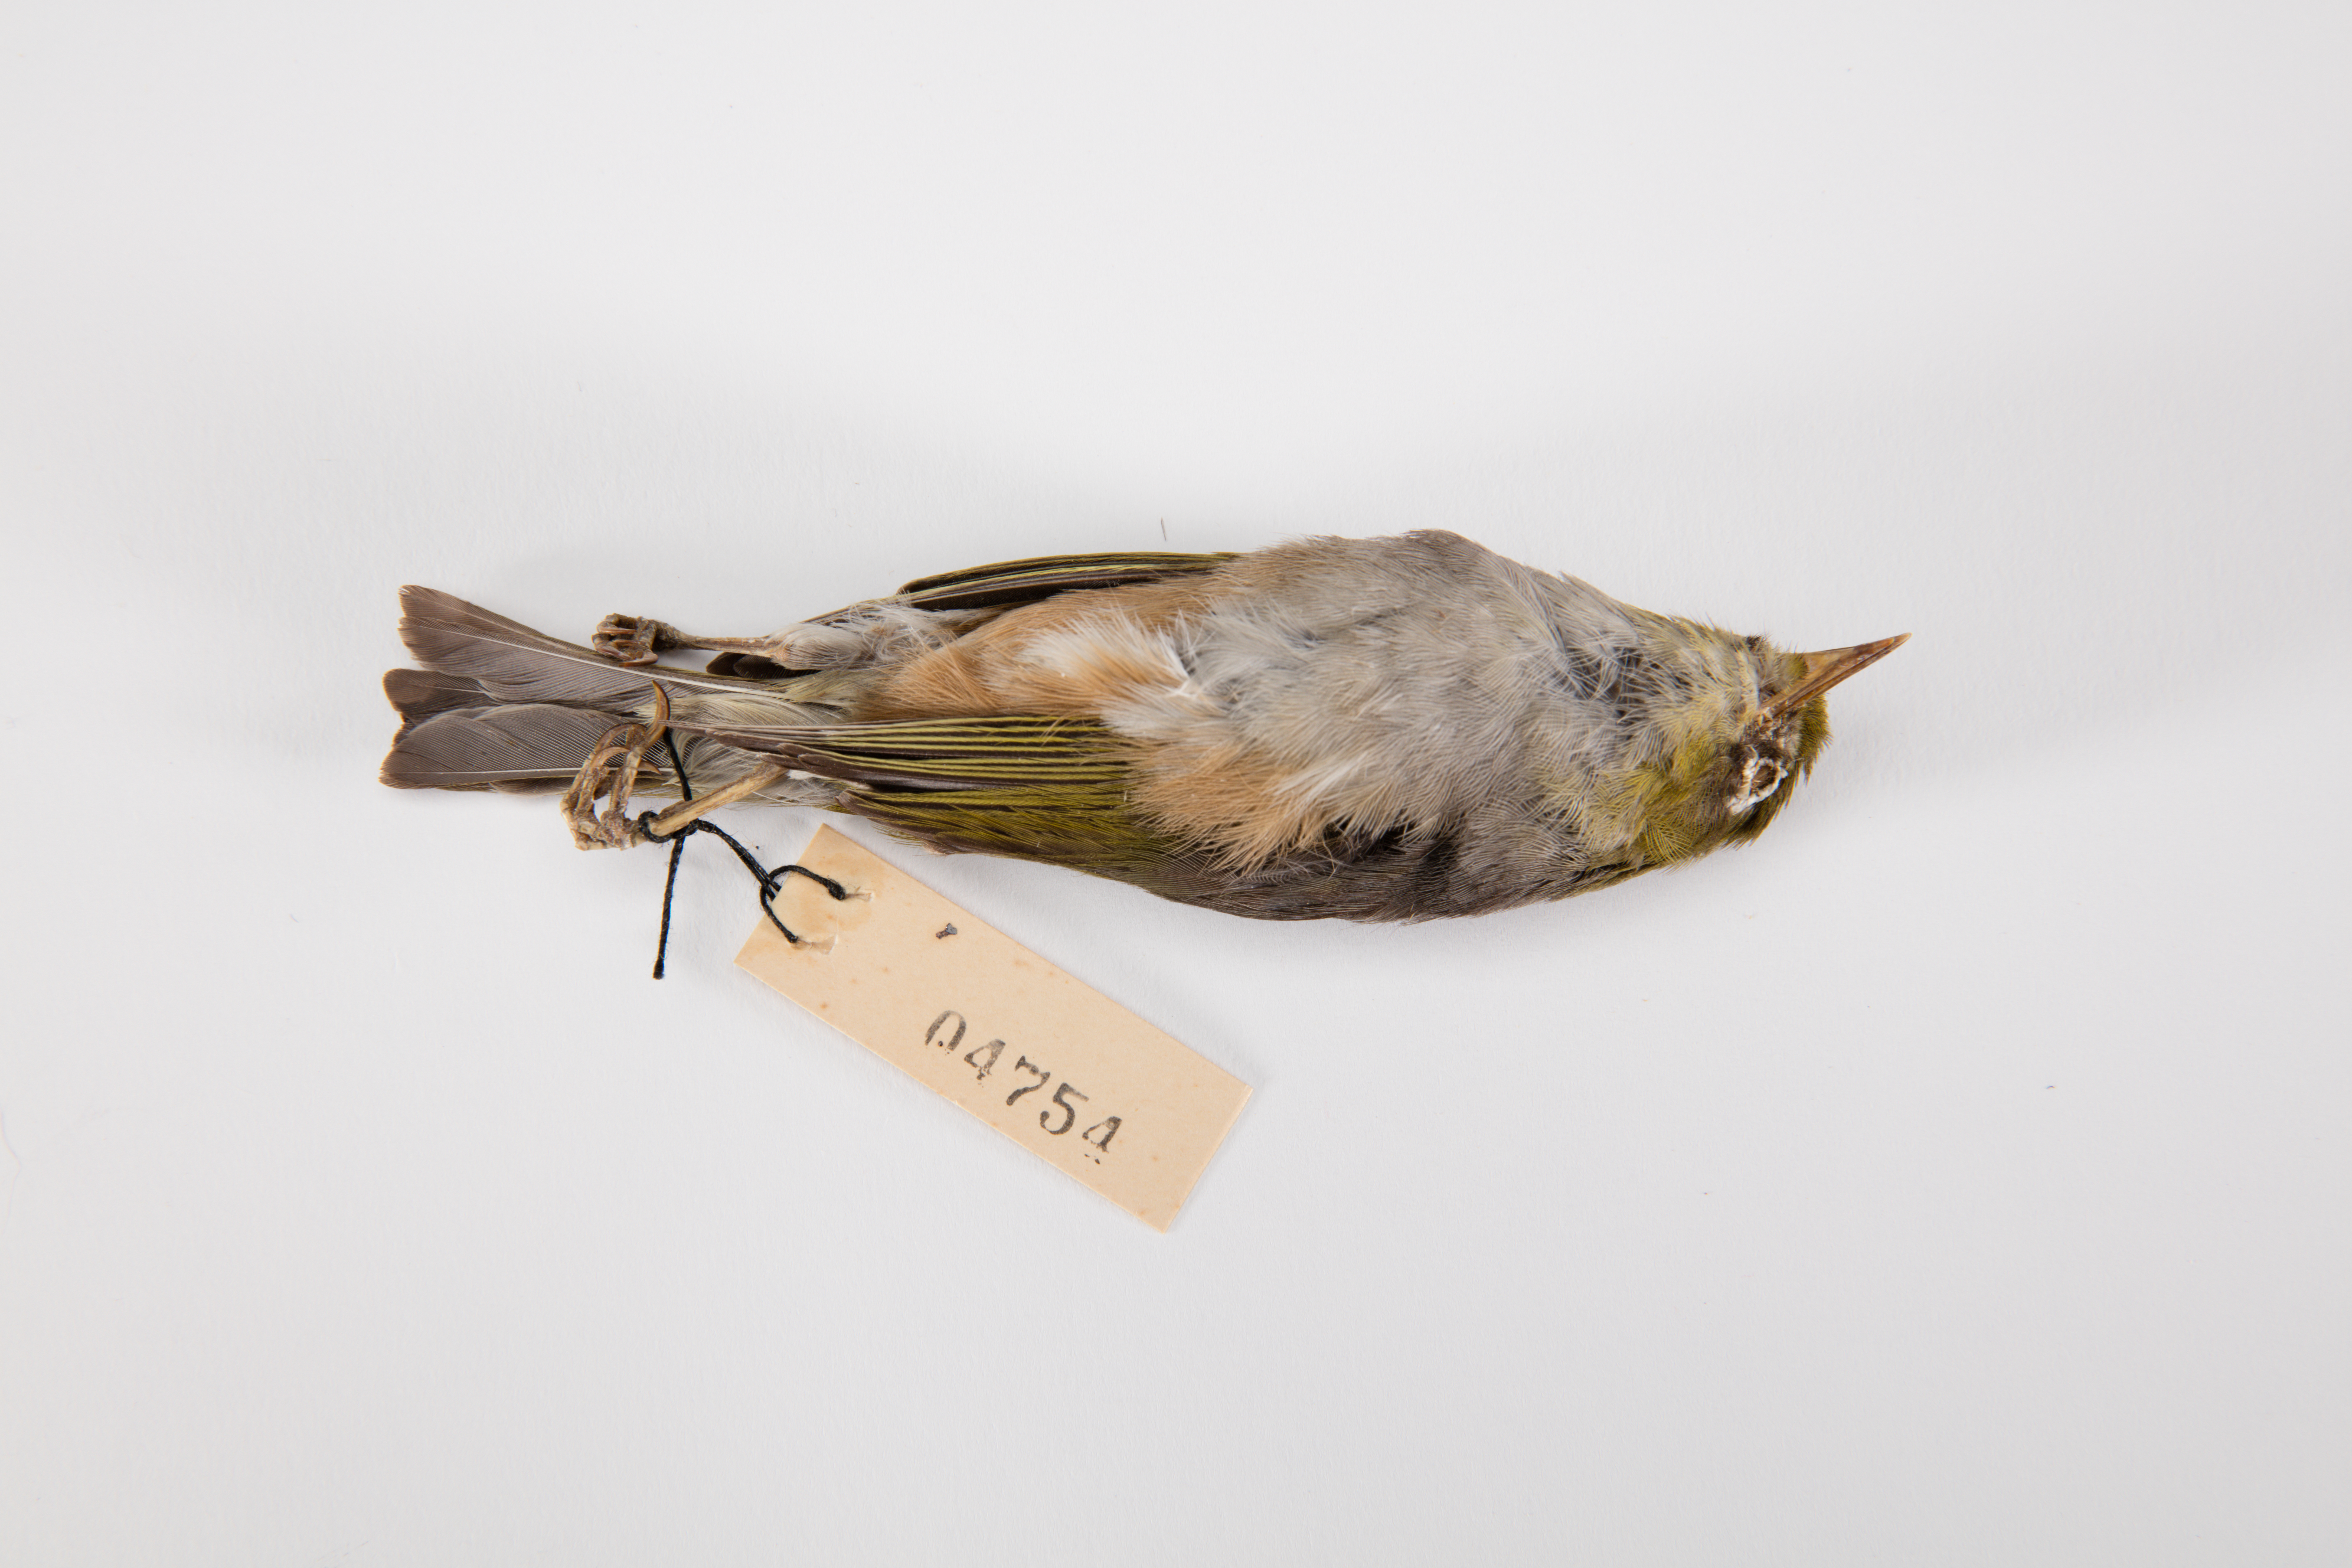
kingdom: Animalia
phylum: Chordata
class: Aves
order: Passeriformes
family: Zosteropidae
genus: Zosterops
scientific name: Zosterops lateralis
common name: Silvereye
